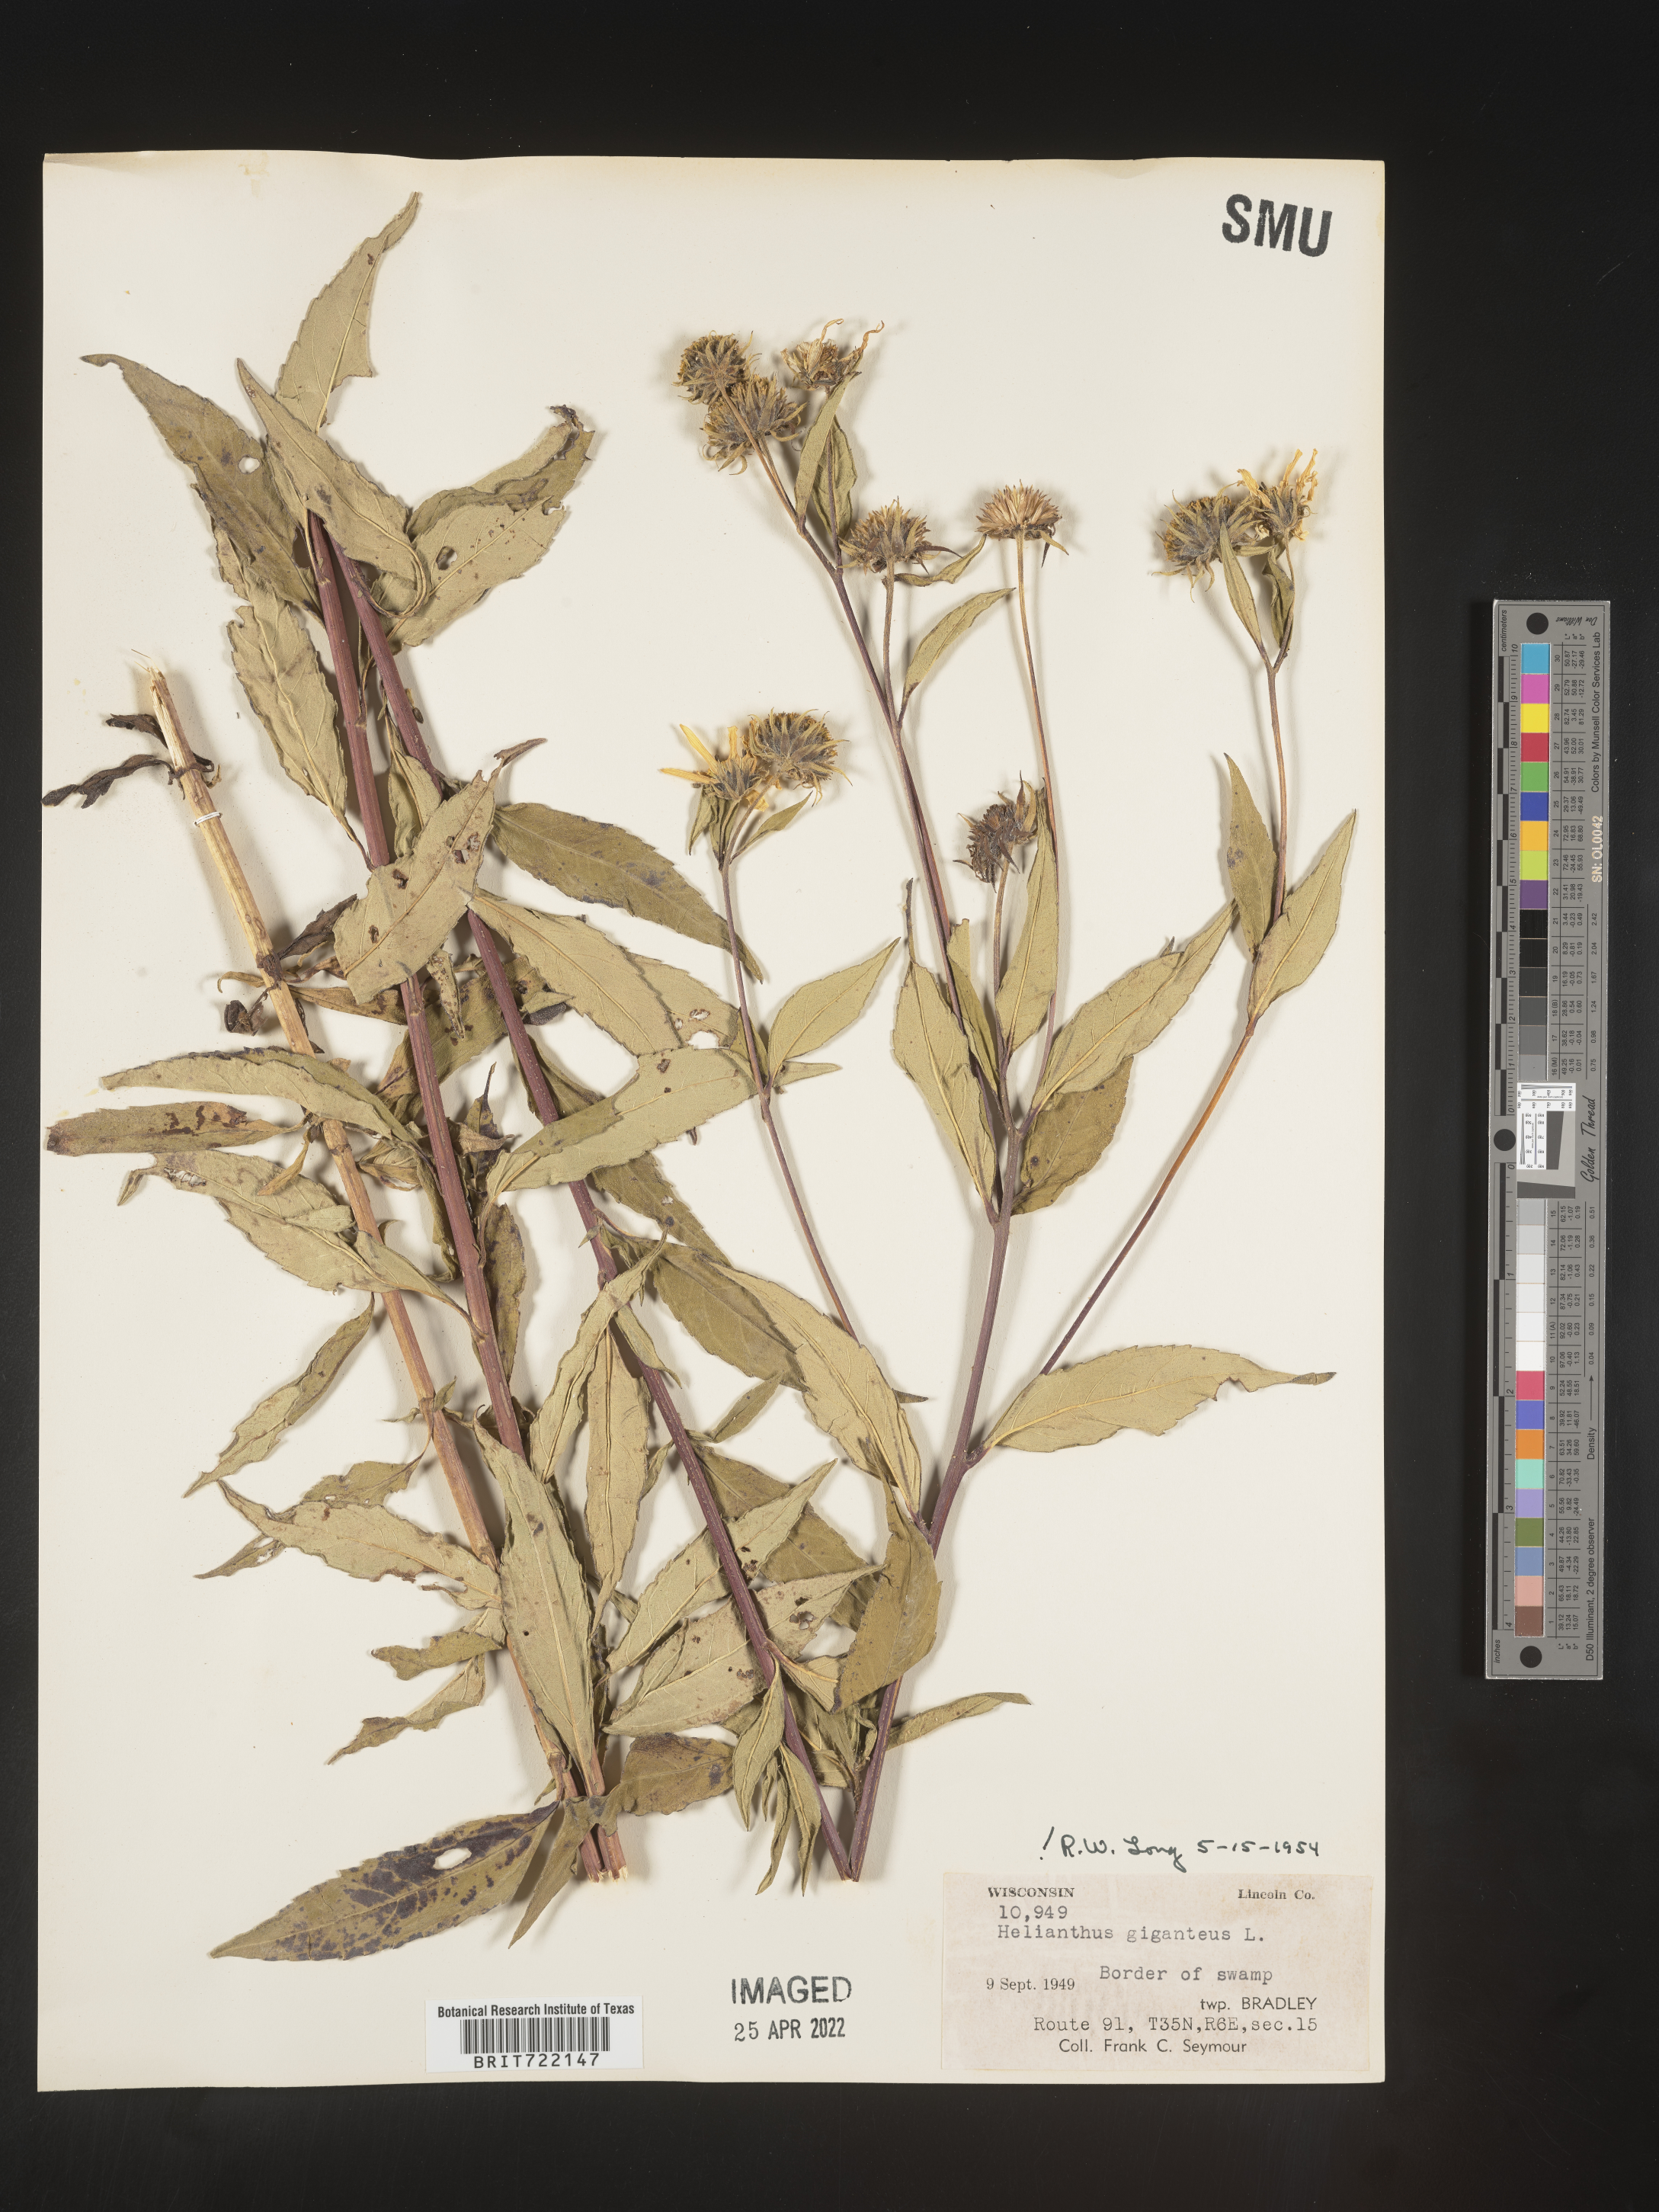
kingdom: Plantae
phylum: Tracheophyta
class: Magnoliopsida
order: Asterales
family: Asteraceae
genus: Helianthus
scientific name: Helianthus giganteus
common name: Giant sunflower
